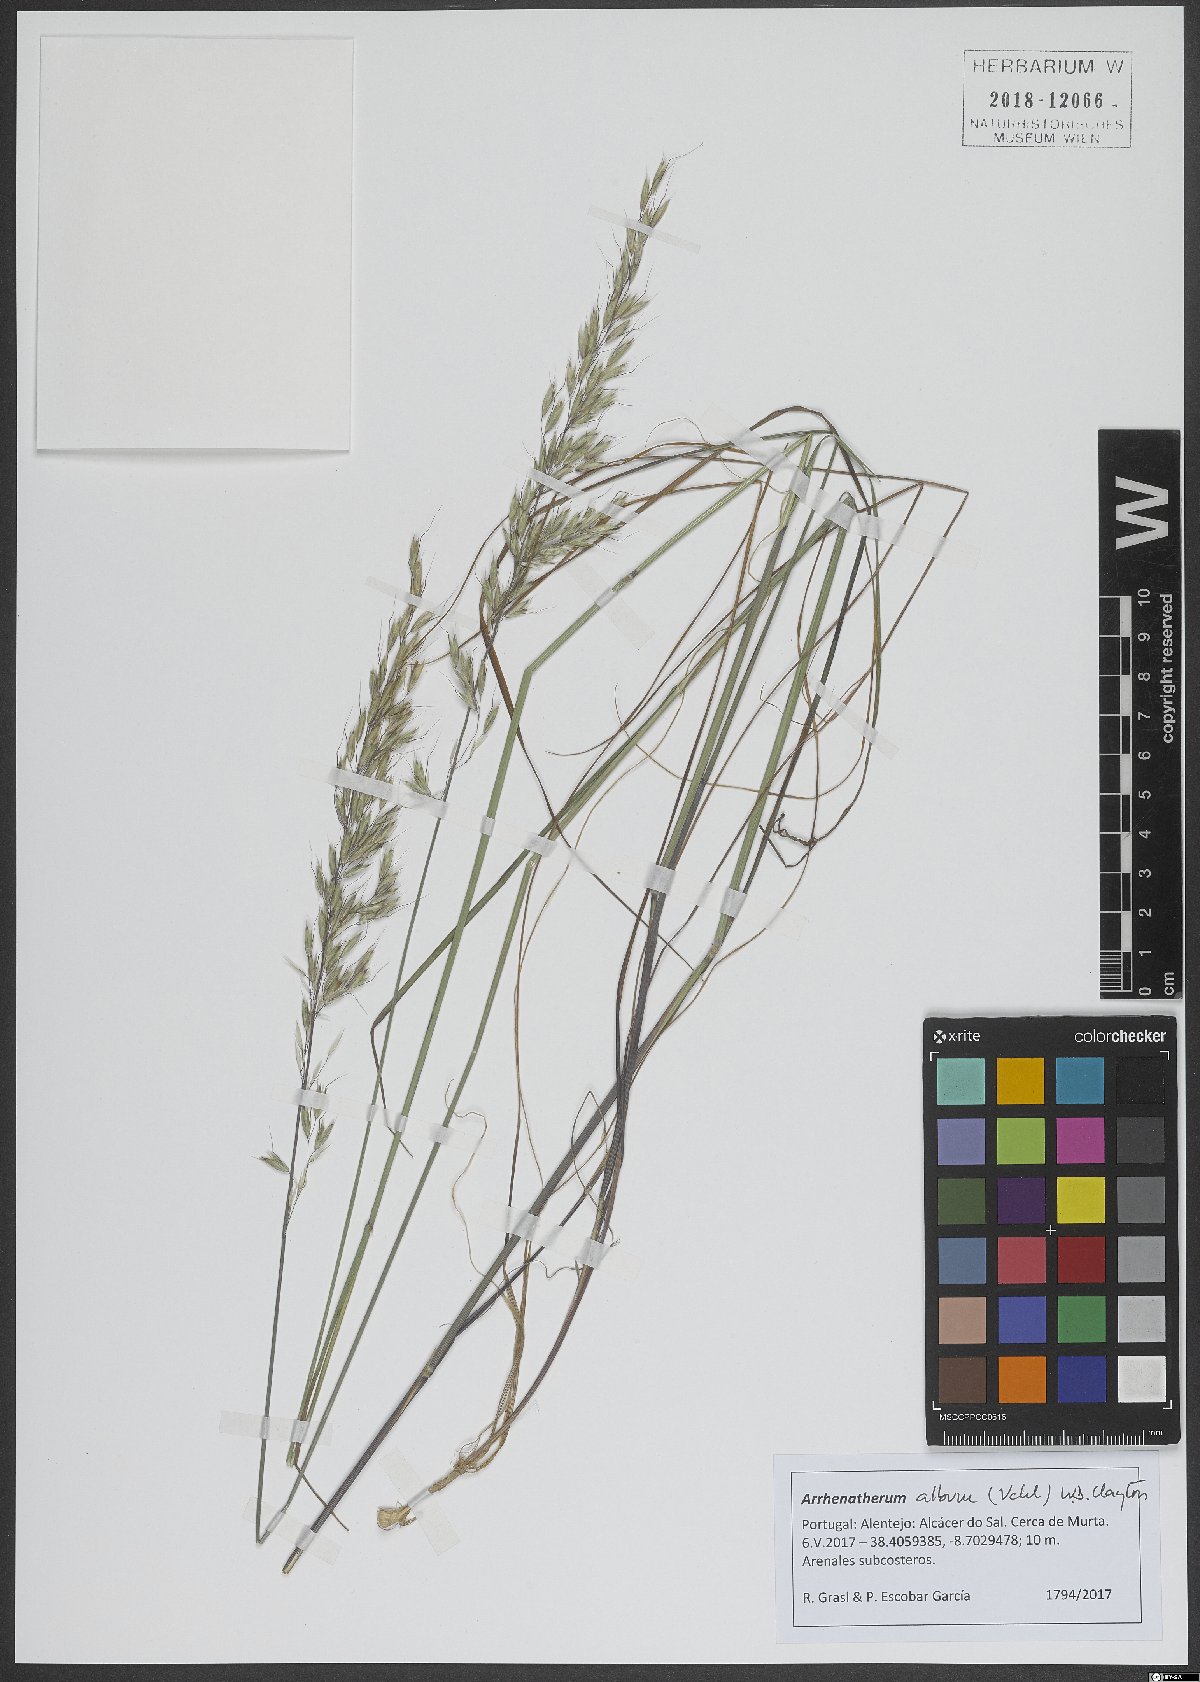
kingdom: Plantae
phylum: Tracheophyta
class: Liliopsida
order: Poales
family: Poaceae
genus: Arrhenatherum
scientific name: Arrhenatherum album
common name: Tall oat grass
